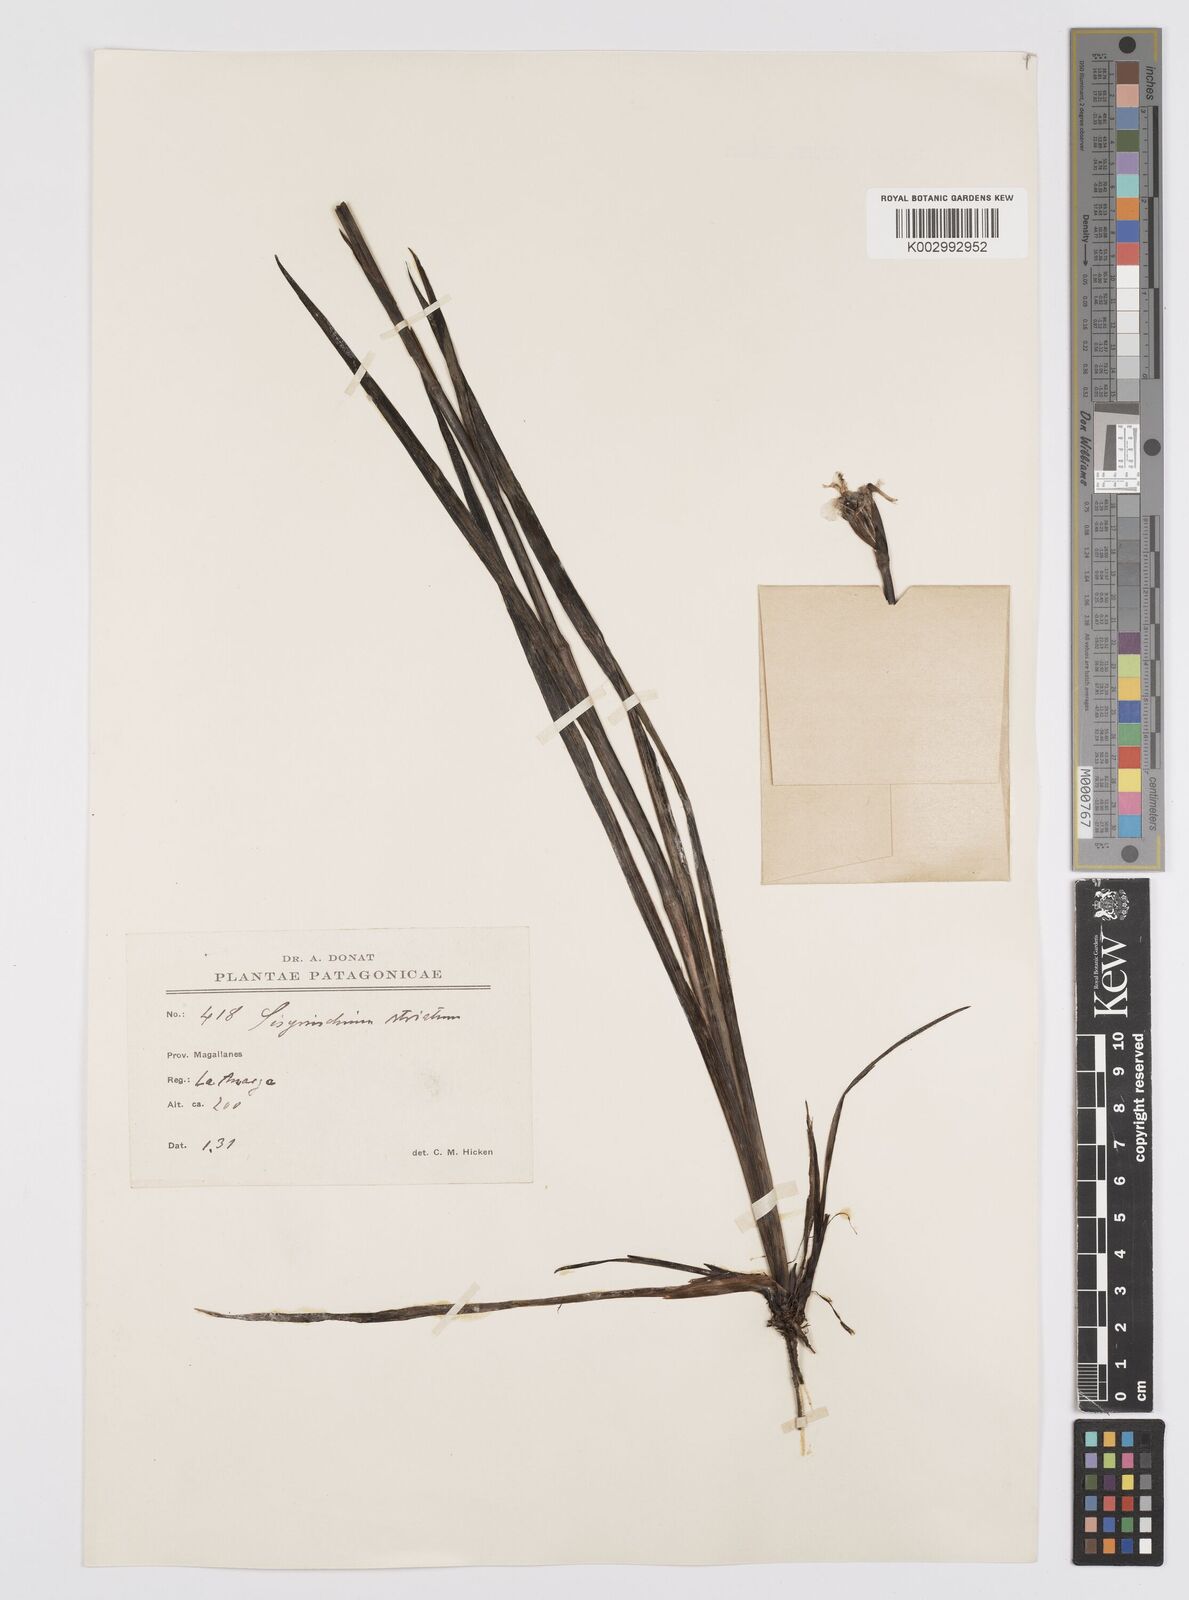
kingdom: Plantae
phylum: Tracheophyta
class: Liliopsida
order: Asparagales
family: Iridaceae
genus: Sisyrinchium
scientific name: Sisyrinchium striatum
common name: Pale yellow-eyed-grass
